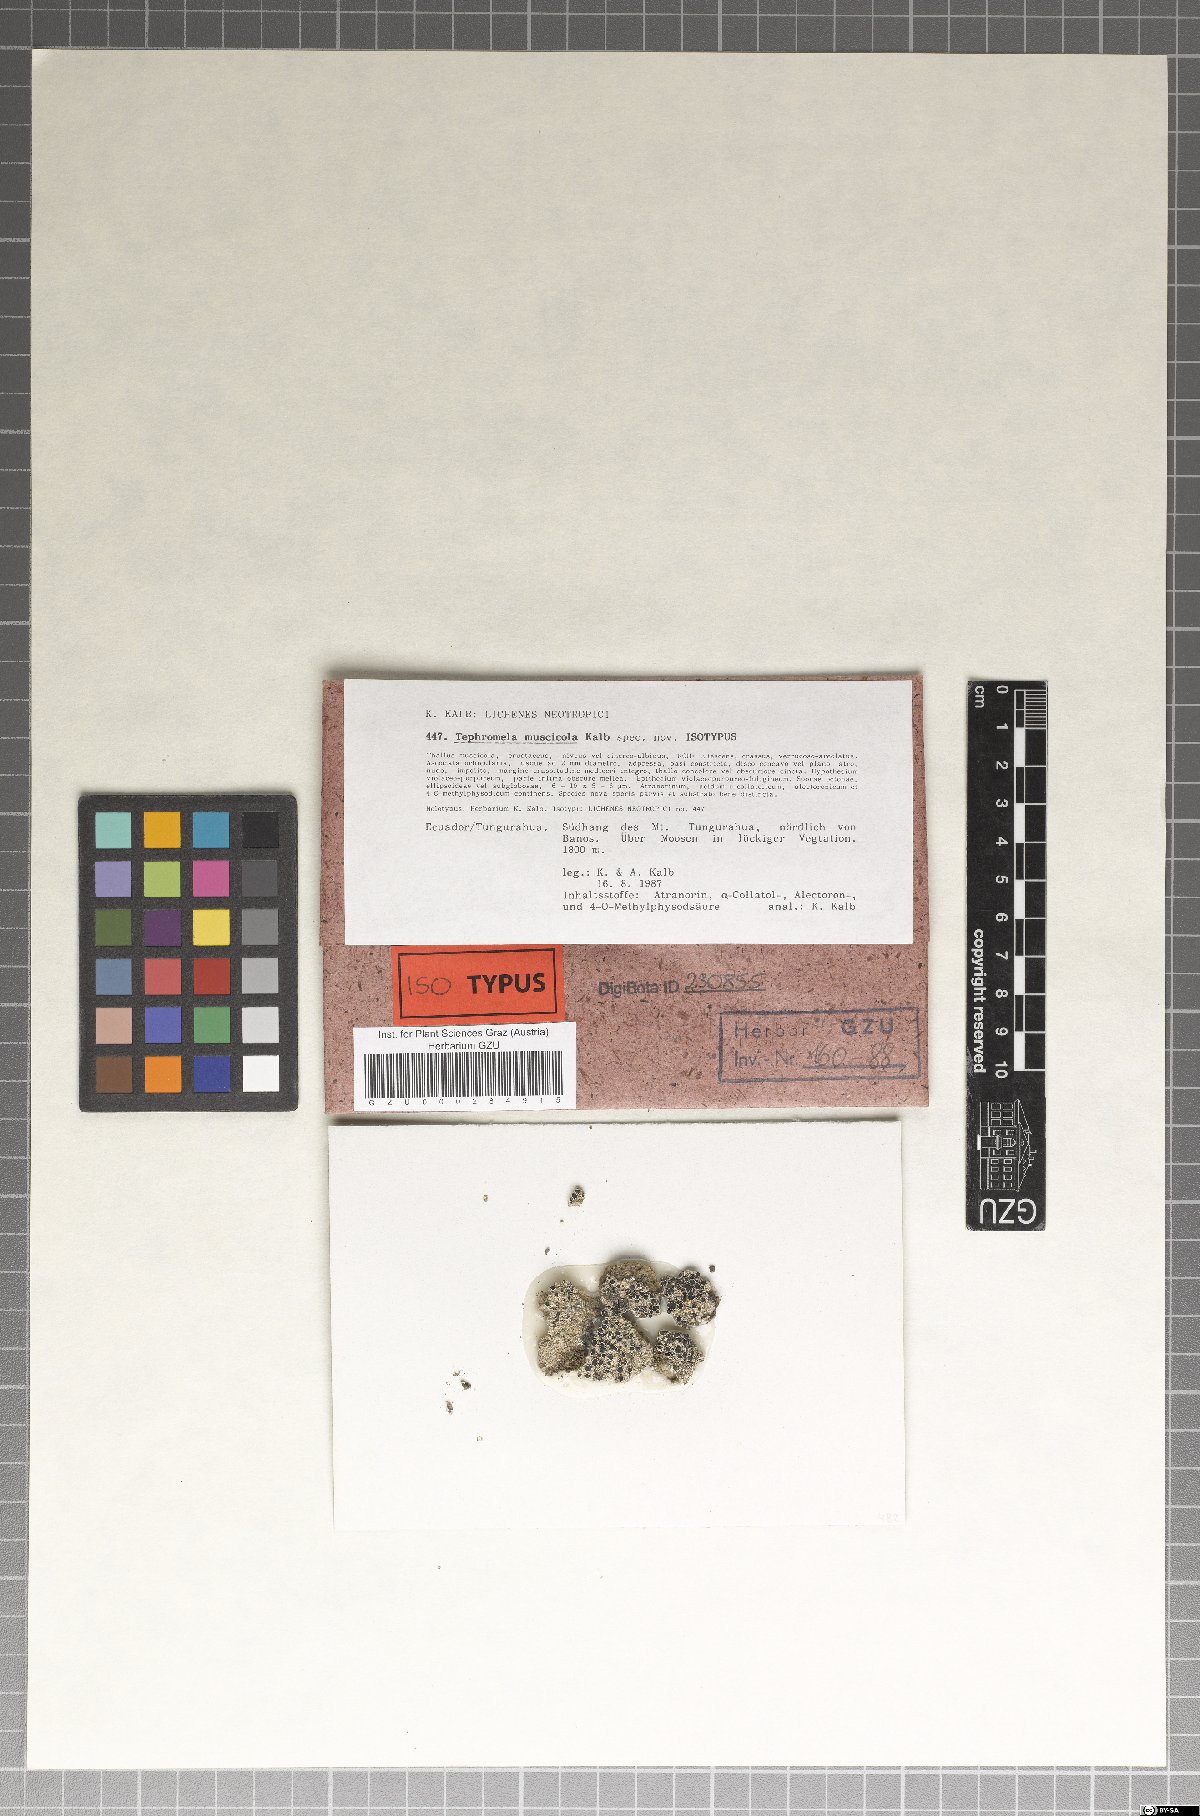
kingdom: Fungi
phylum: Ascomycota
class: Lecanoromycetes
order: Lecanorales
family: Tephromelataceae
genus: Tephromela
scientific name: Tephromela muscicola
